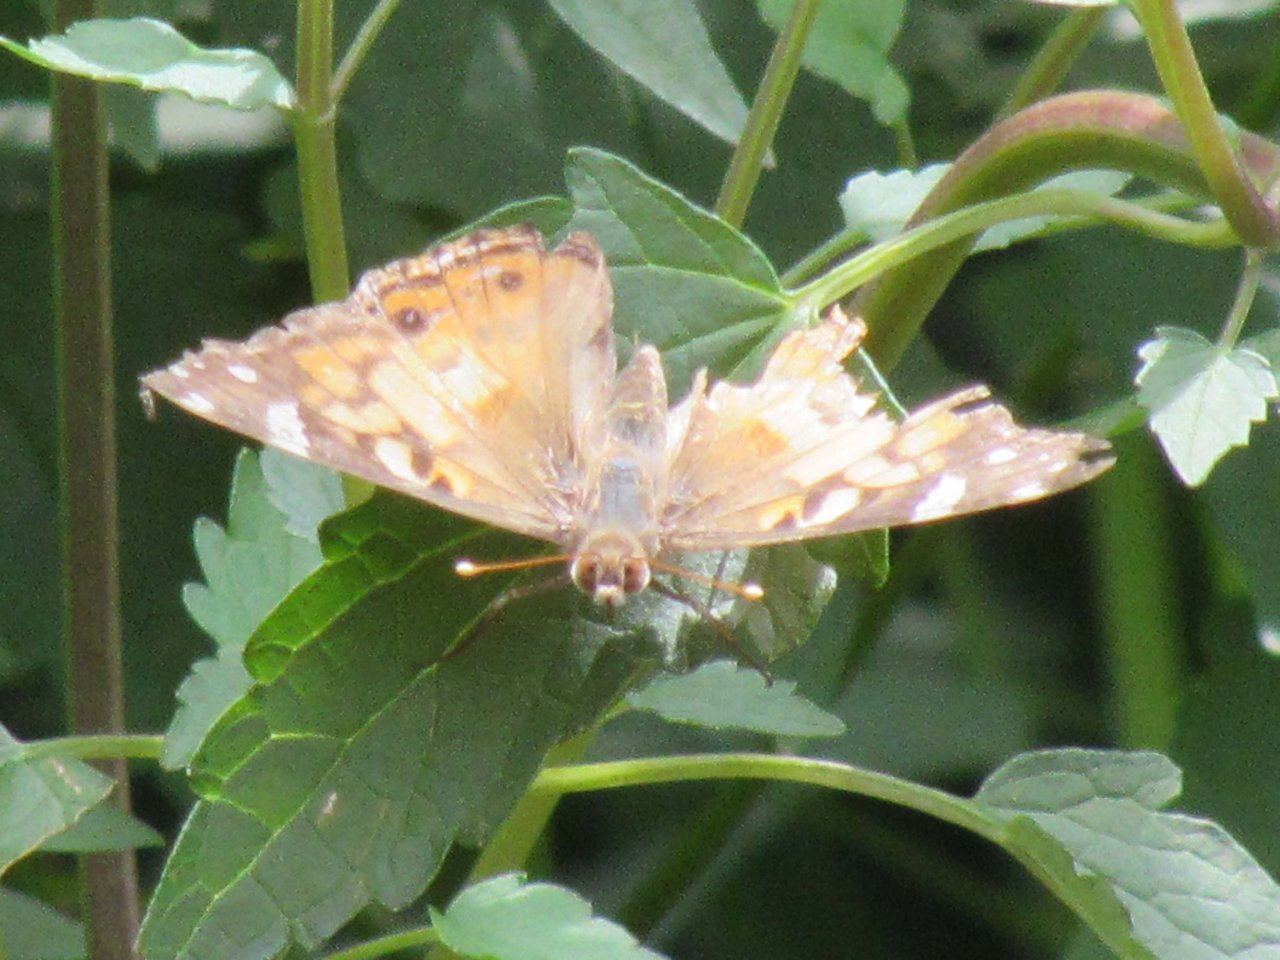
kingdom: Animalia
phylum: Arthropoda
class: Insecta
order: Lepidoptera
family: Nymphalidae
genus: Vanessa
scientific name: Vanessa virginiensis
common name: American Lady
